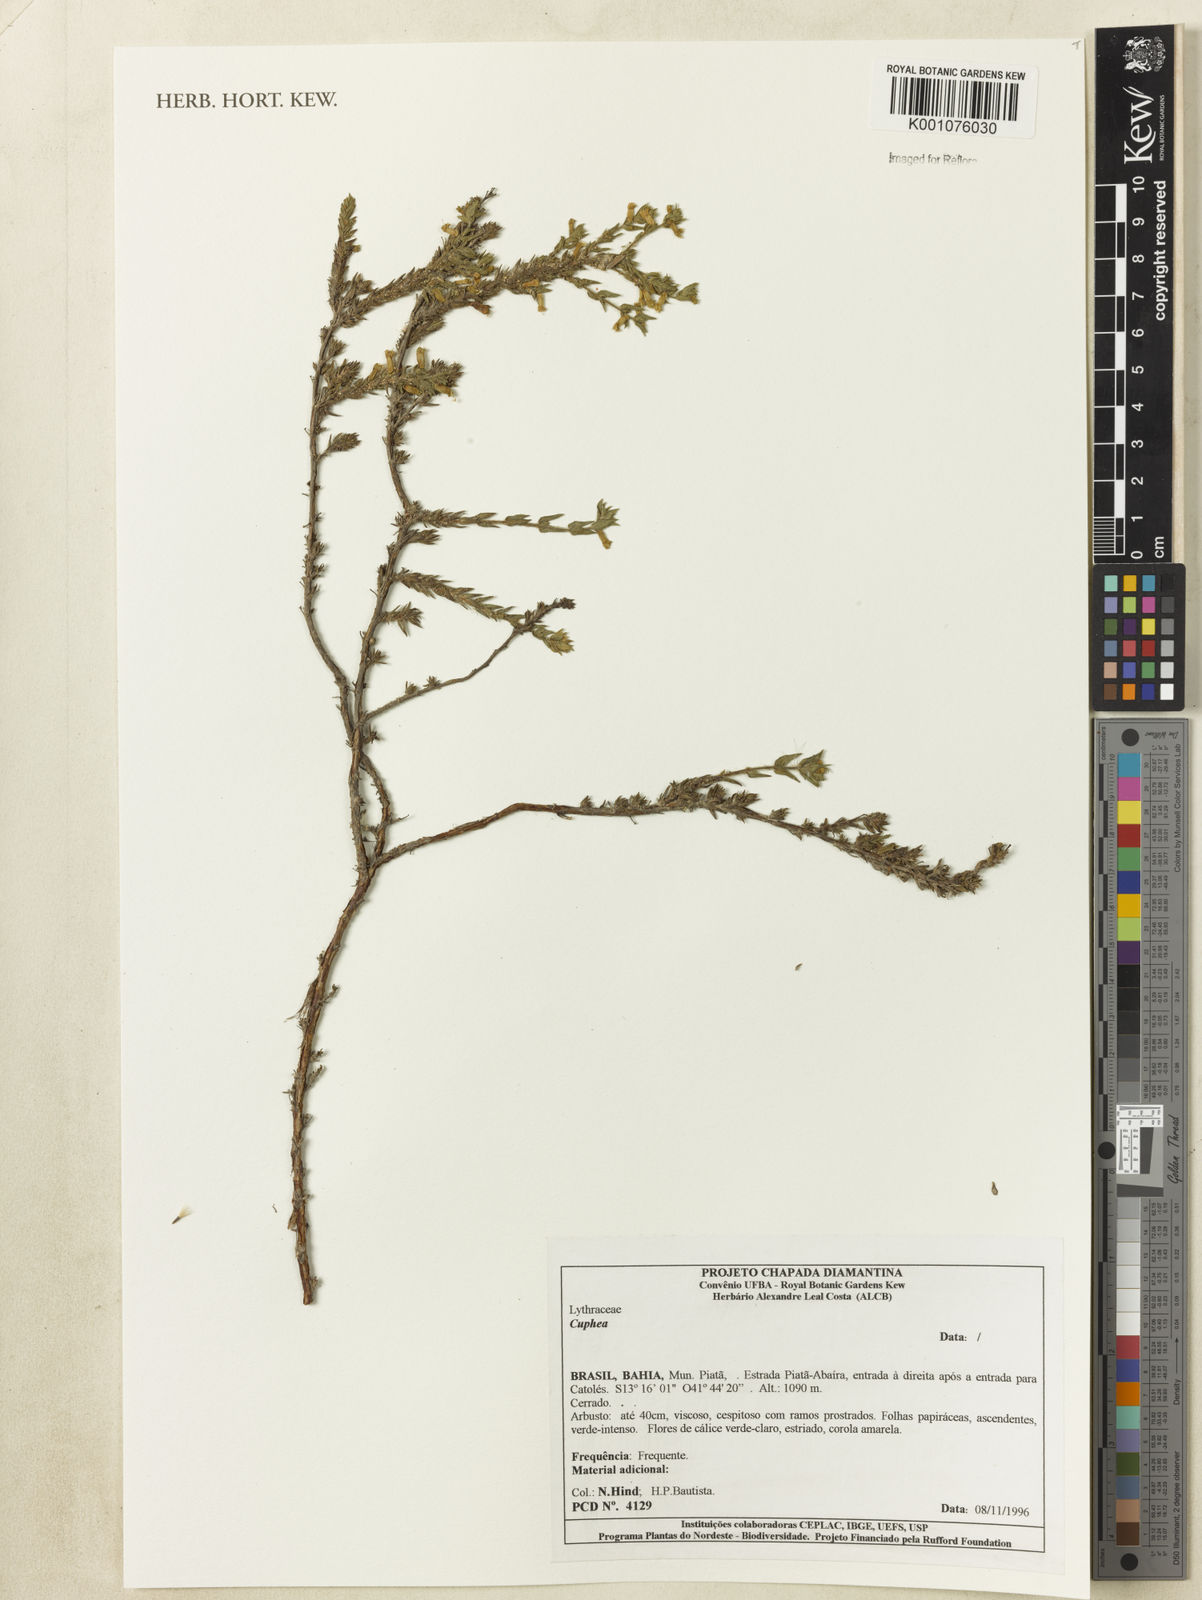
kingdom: Plantae
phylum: Tracheophyta
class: Magnoliopsida
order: Myrtales
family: Lythraceae
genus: Cuphea
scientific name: Cuphea
